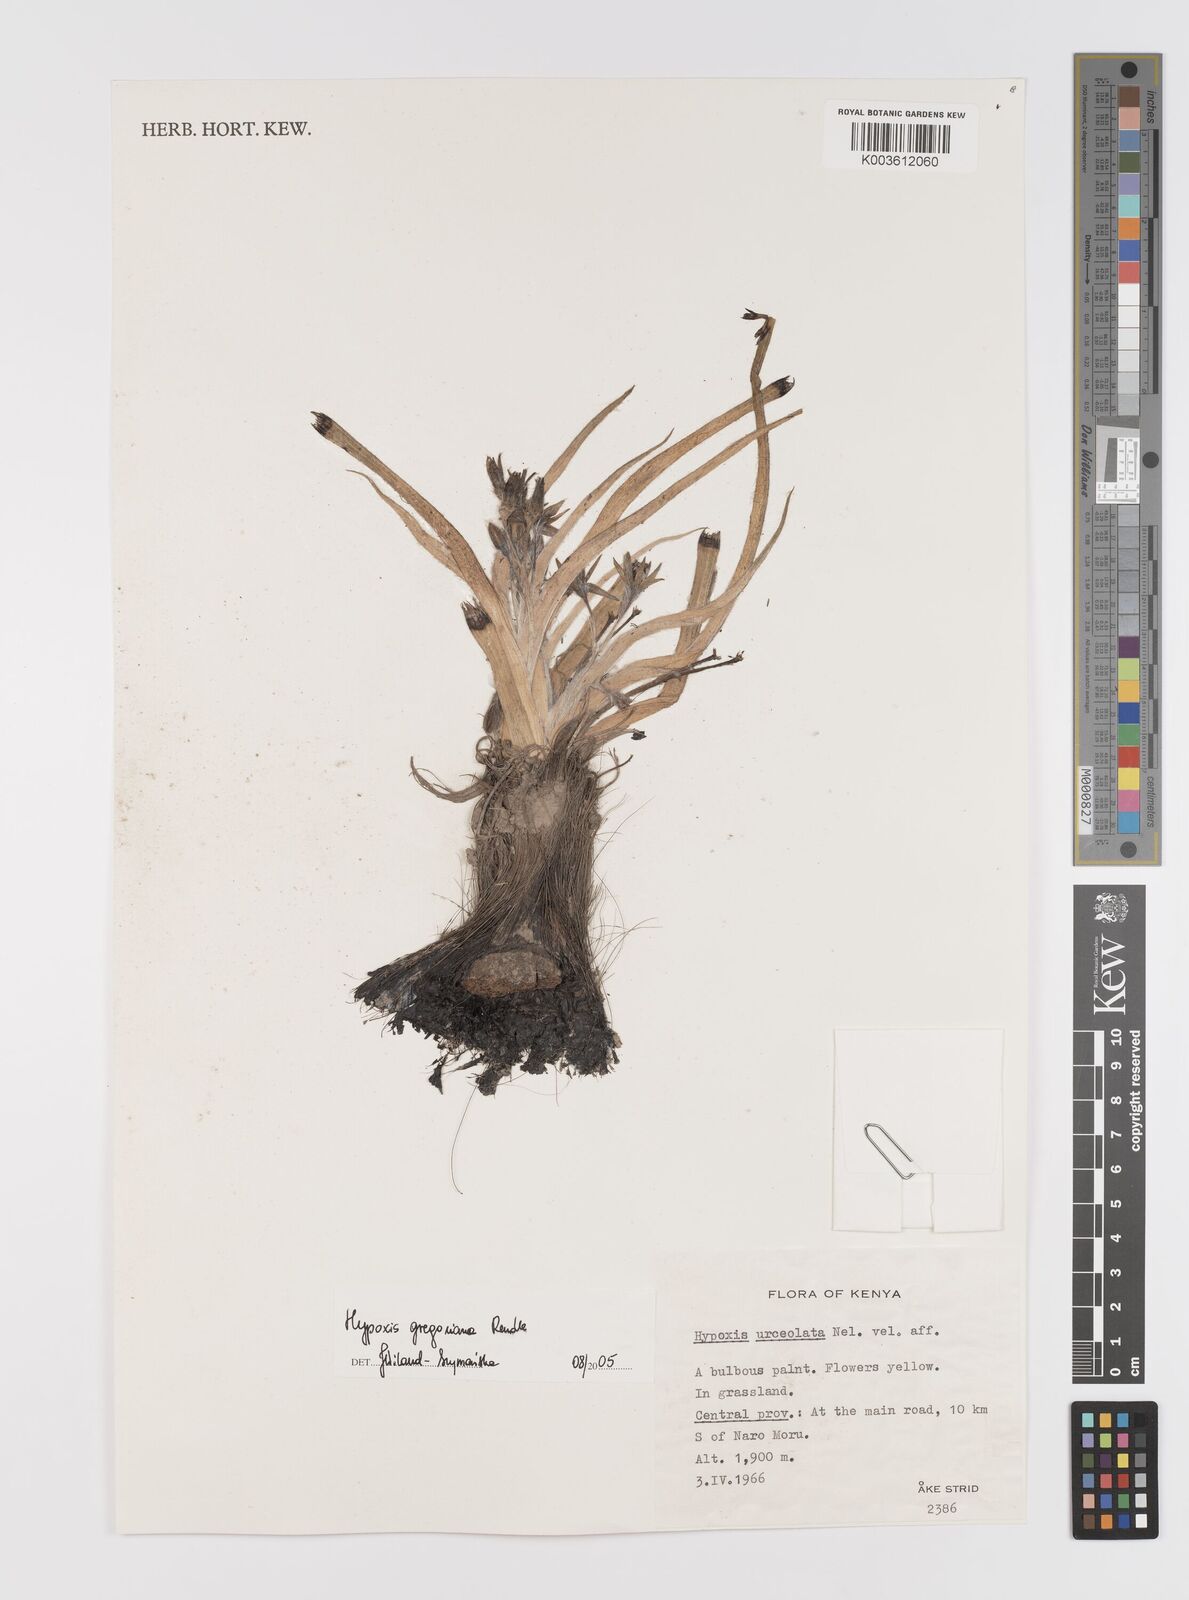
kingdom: Plantae
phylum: Tracheophyta
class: Liliopsida
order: Asparagales
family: Hypoxidaceae
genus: Hypoxis
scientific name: Hypoxis gregoriana
